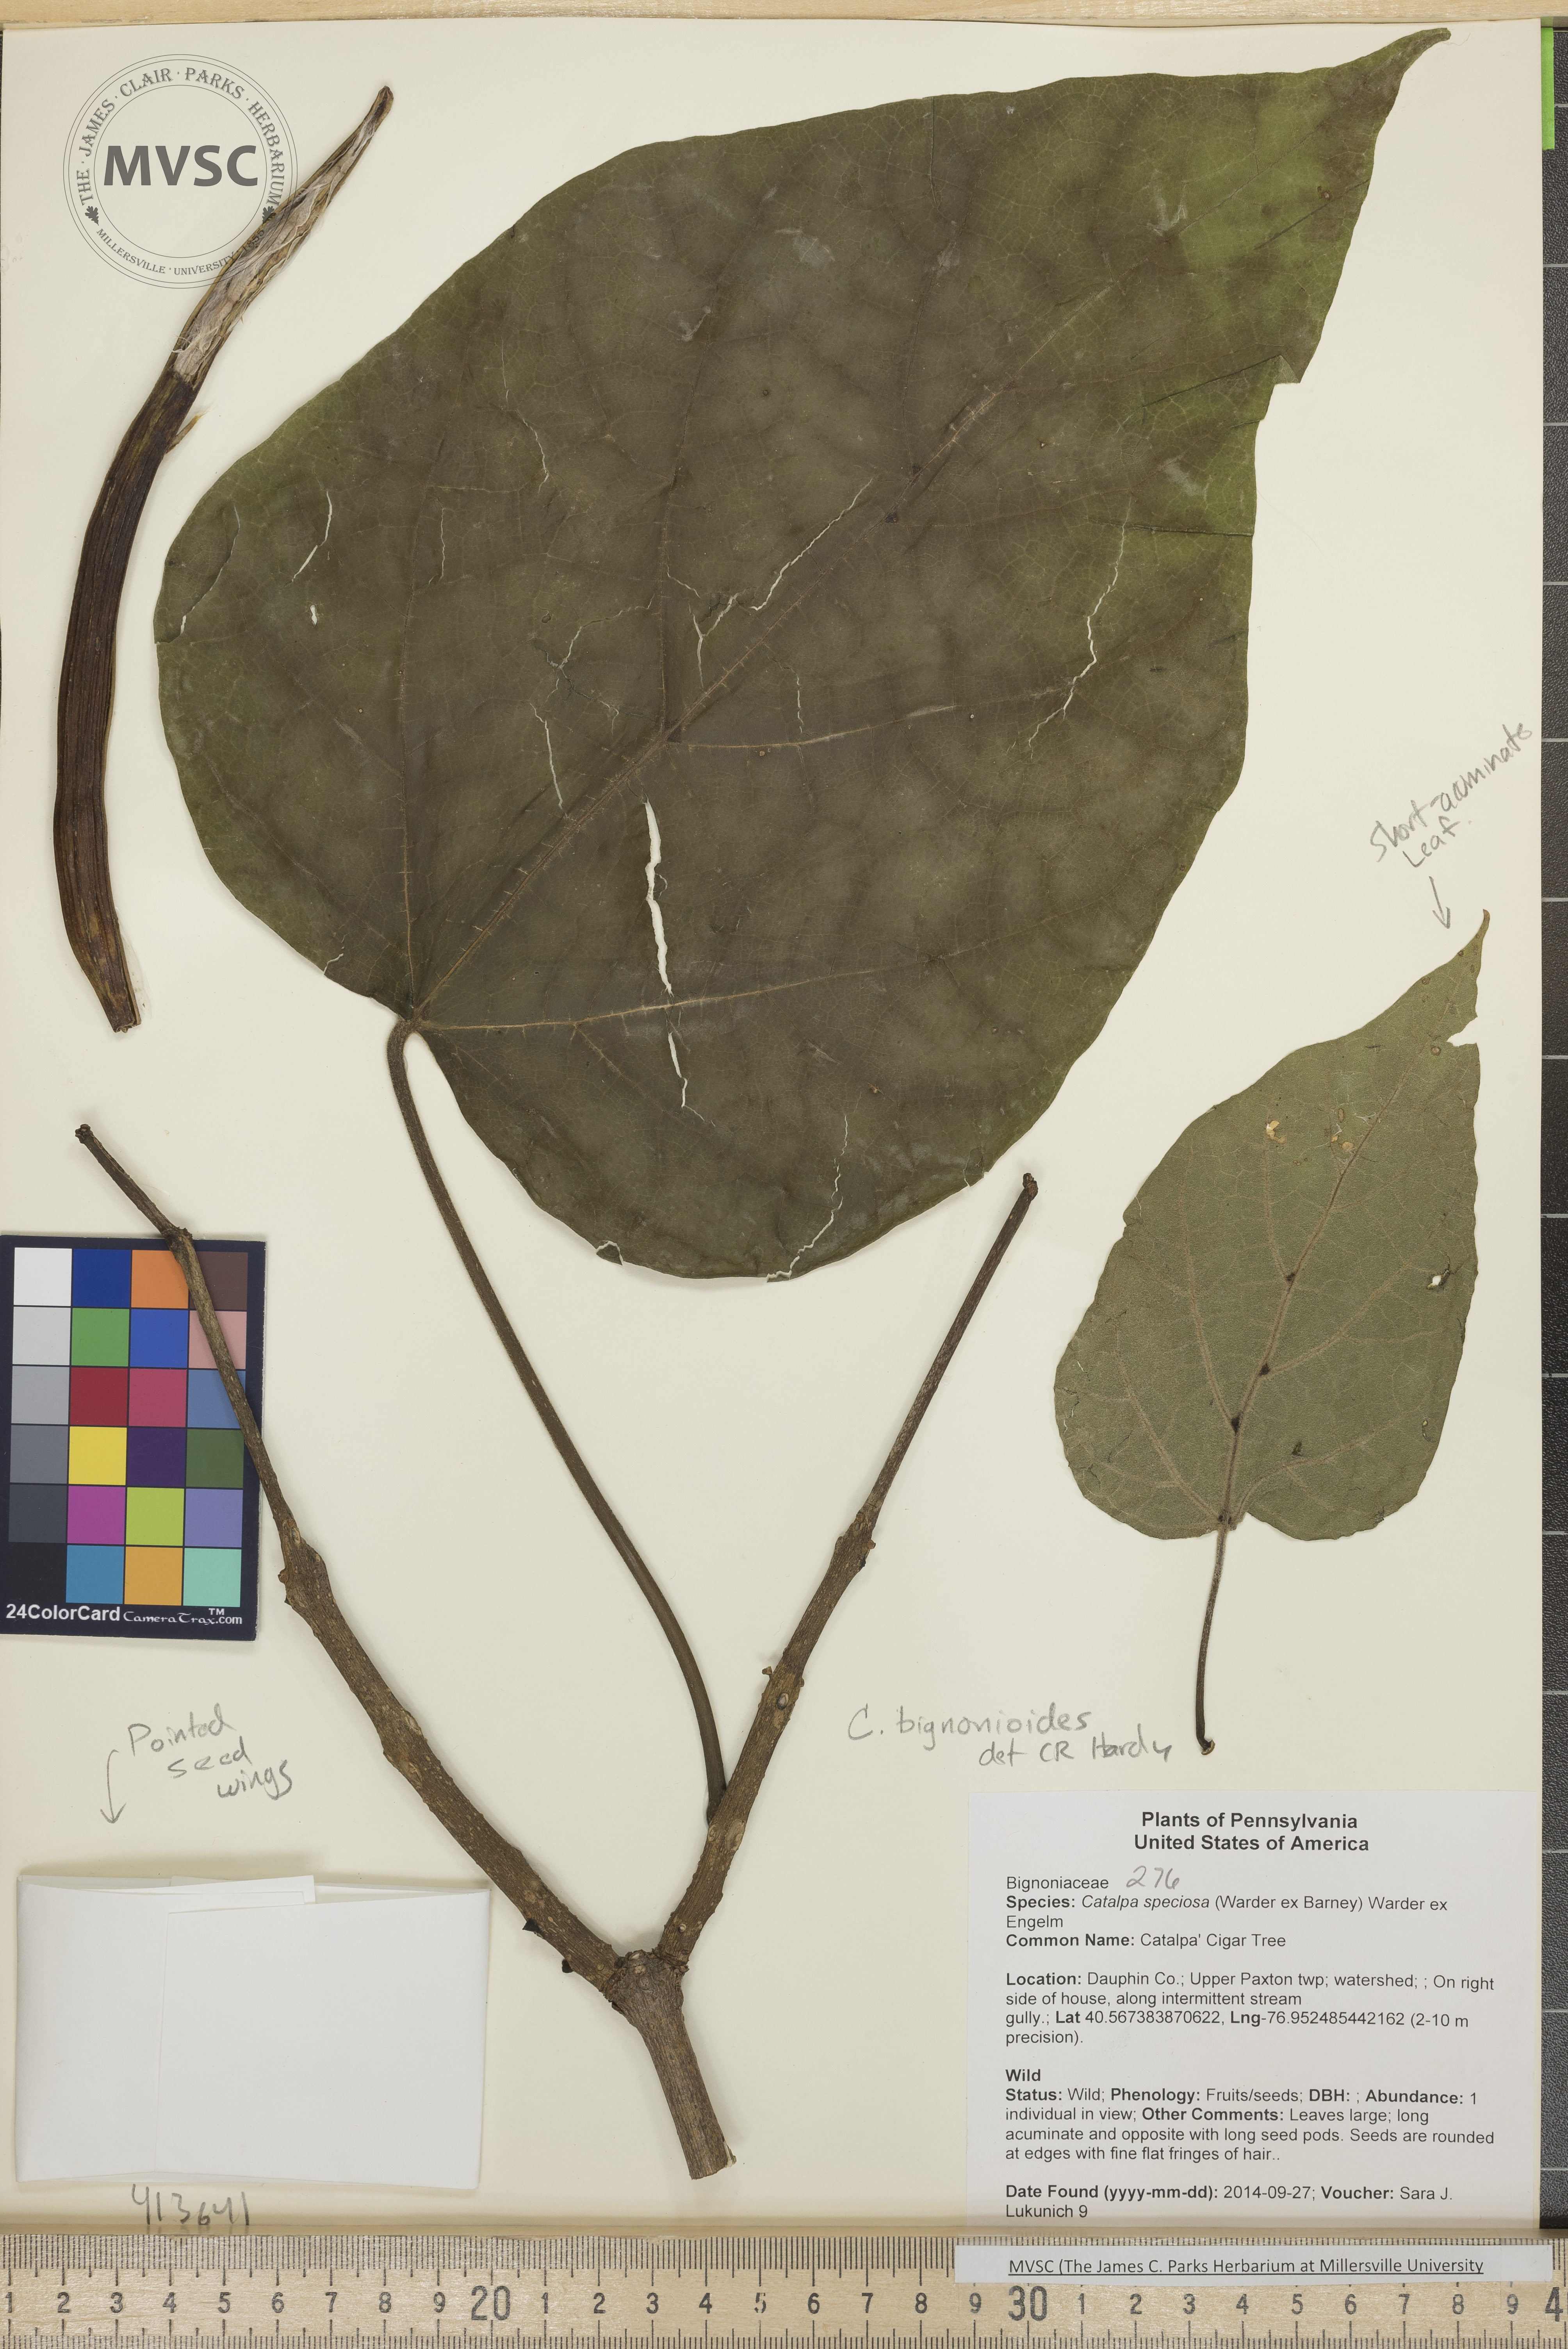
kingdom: Plantae
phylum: Tracheophyta
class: Magnoliopsida
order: Lamiales
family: Bignoniaceae
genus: Catalpa
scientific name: Catalpa bignonioides
